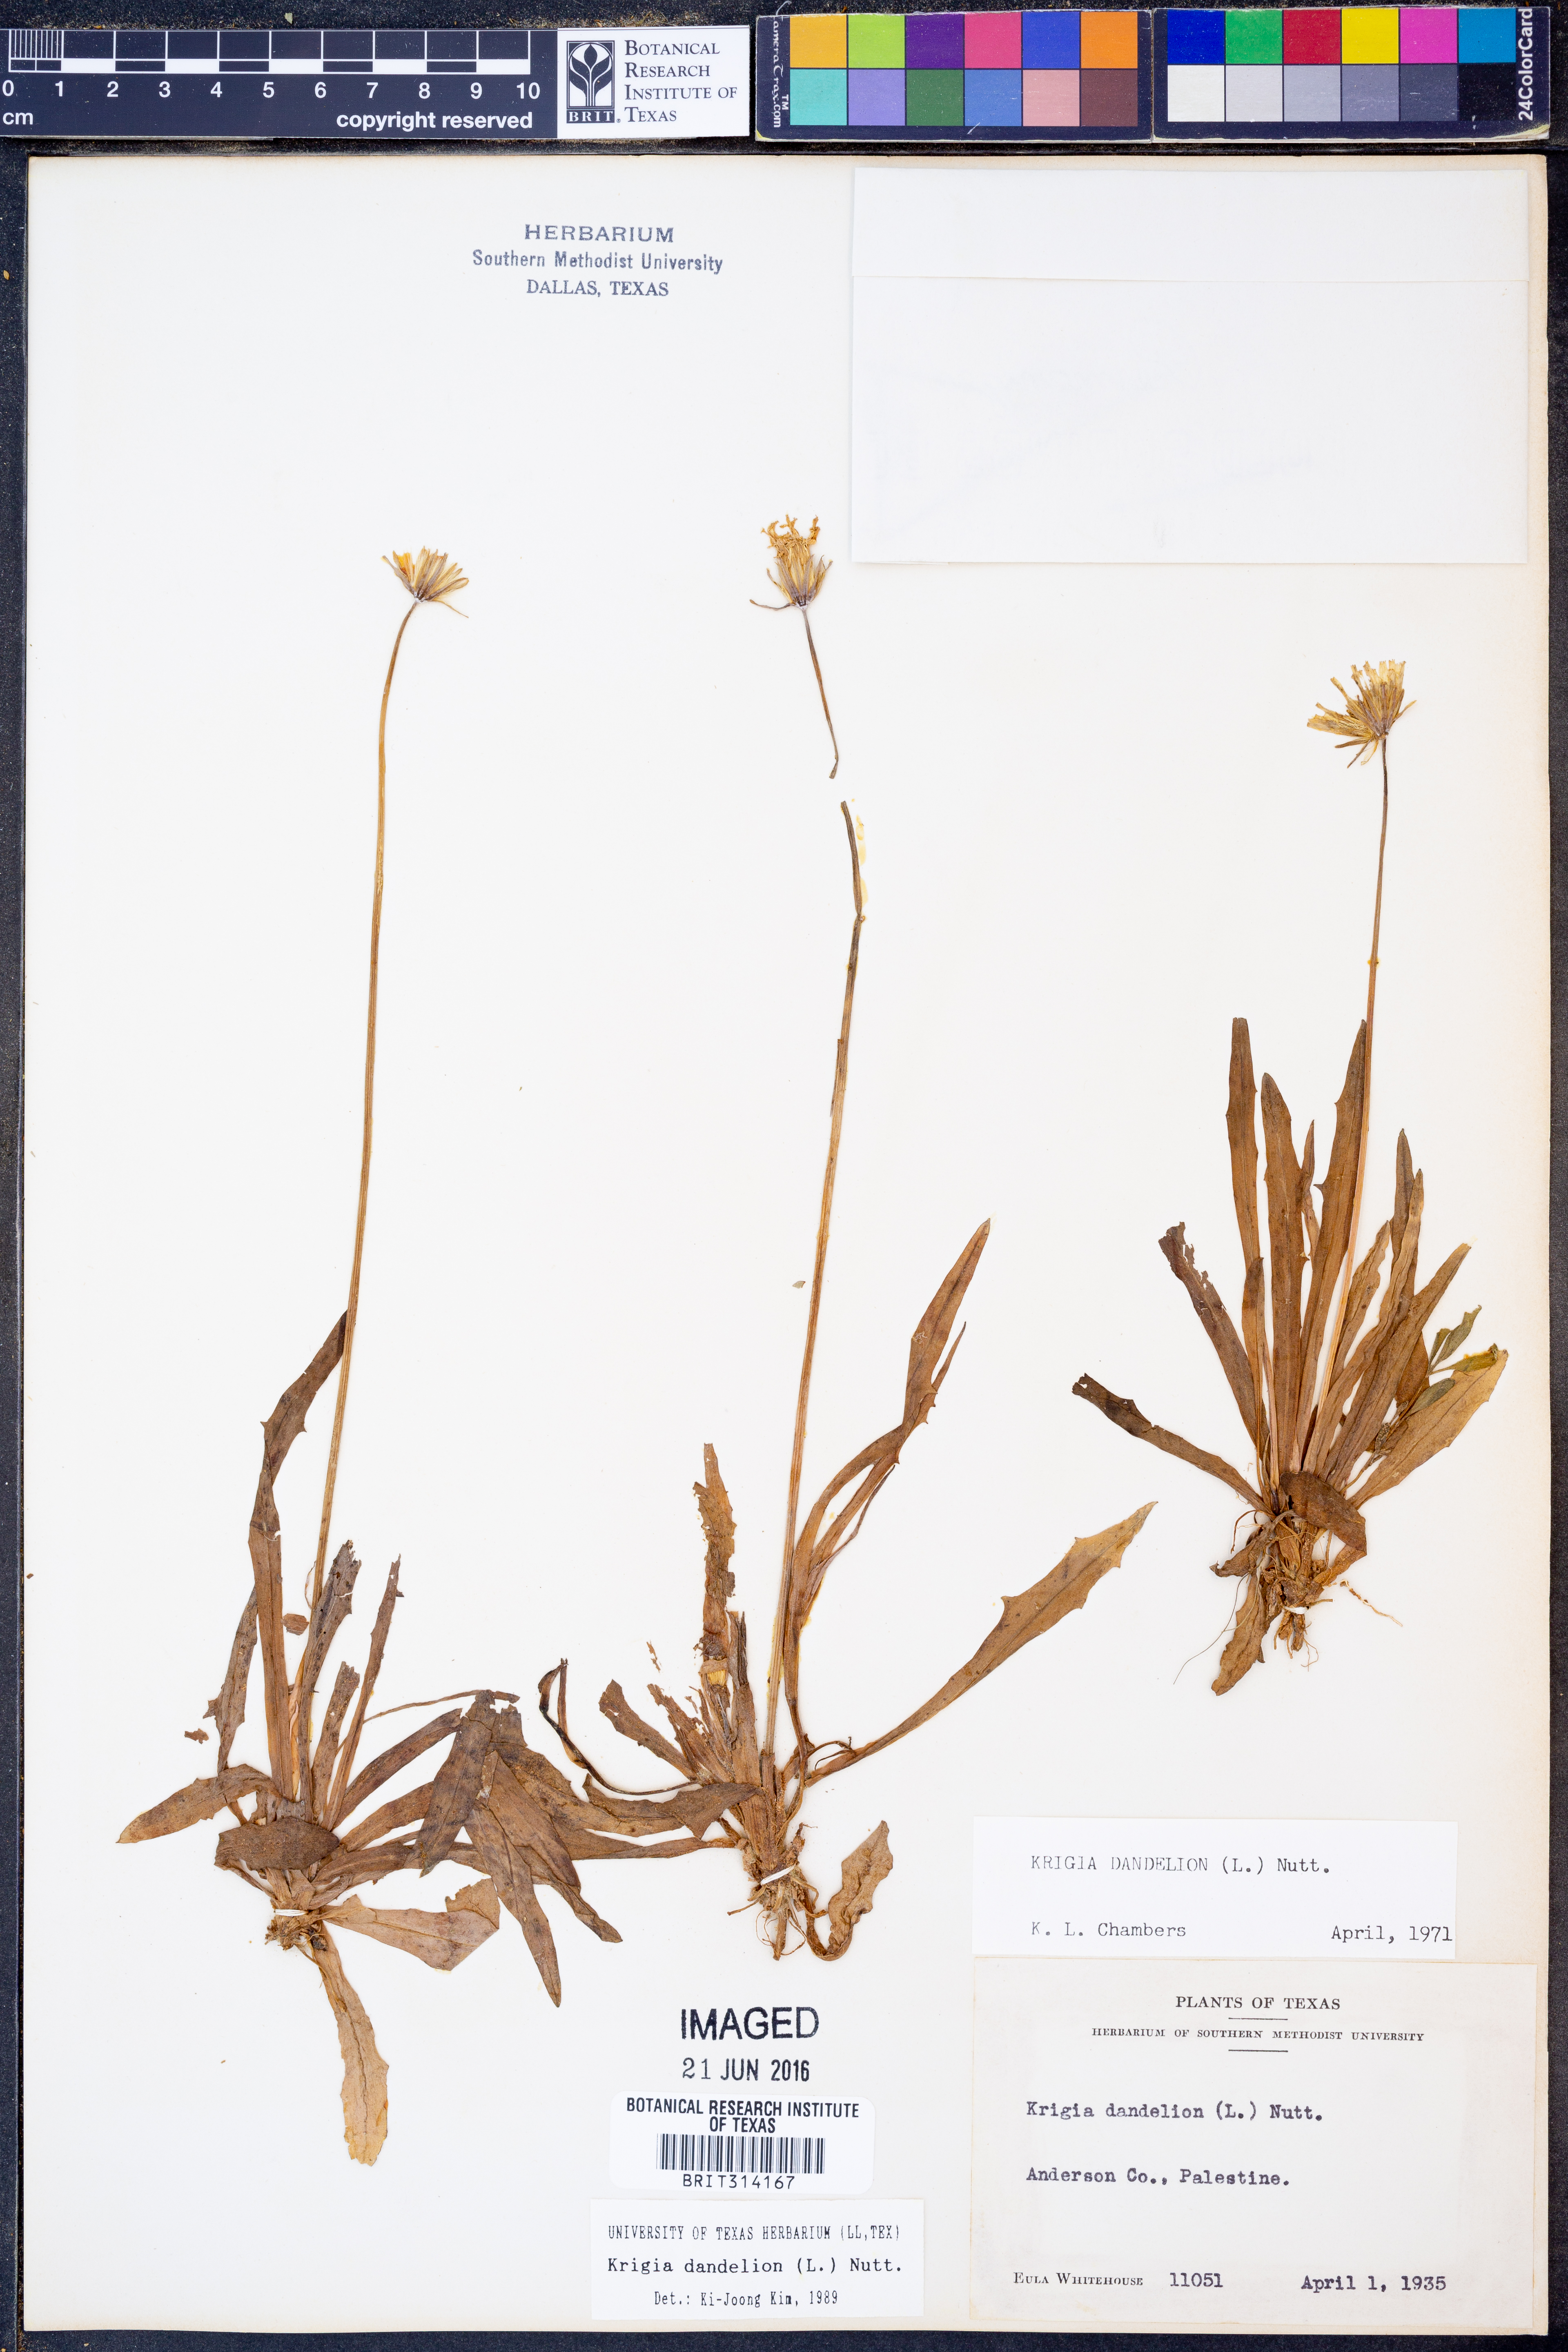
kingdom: Plantae
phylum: Tracheophyta
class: Magnoliopsida
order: Asterales
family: Asteraceae
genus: Krigia
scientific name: Krigia dandelion
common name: Colonial dwarf-dandelion
